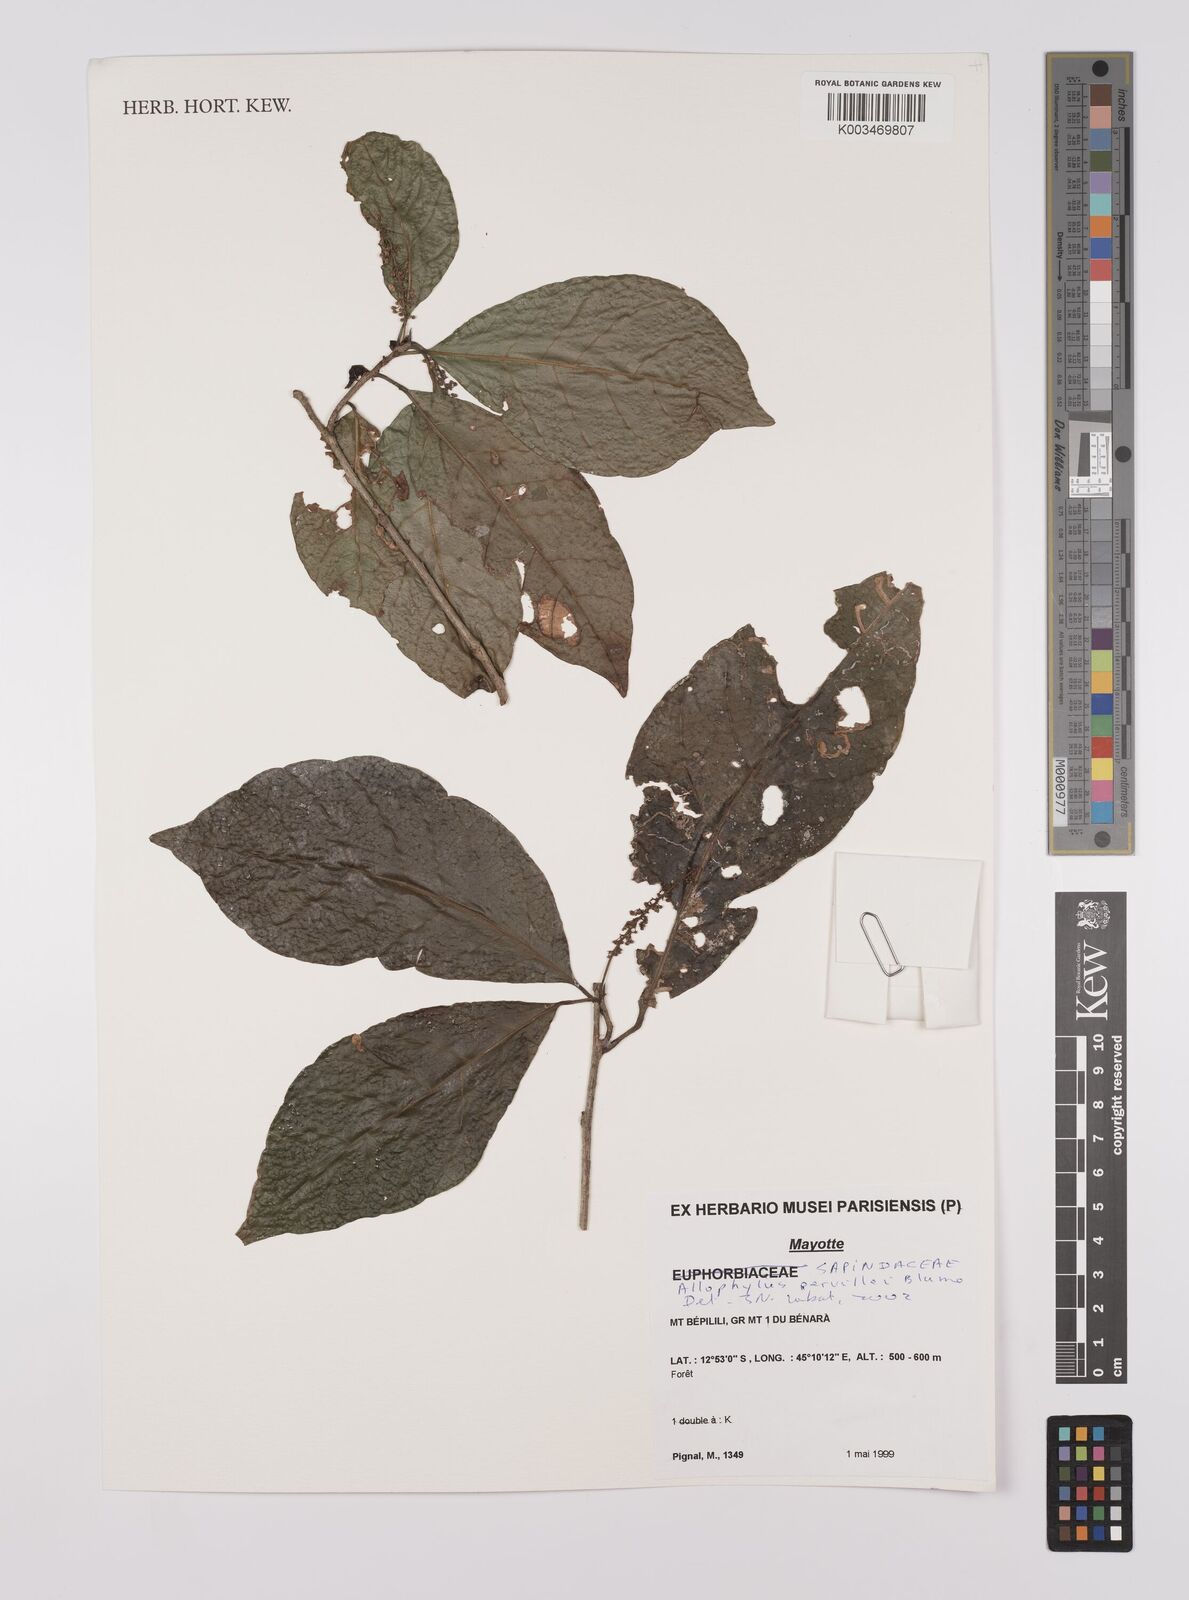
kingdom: Plantae
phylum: Tracheophyta
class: Magnoliopsida
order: Sapindales
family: Sapindaceae
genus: Allophylus
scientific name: Allophylus pervillei
